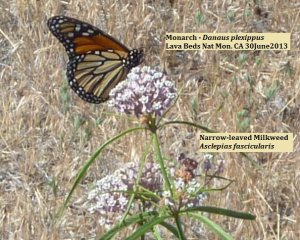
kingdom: Animalia
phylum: Arthropoda
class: Insecta
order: Lepidoptera
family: Nymphalidae
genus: Danaus
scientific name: Danaus plexippus
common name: Monarch
